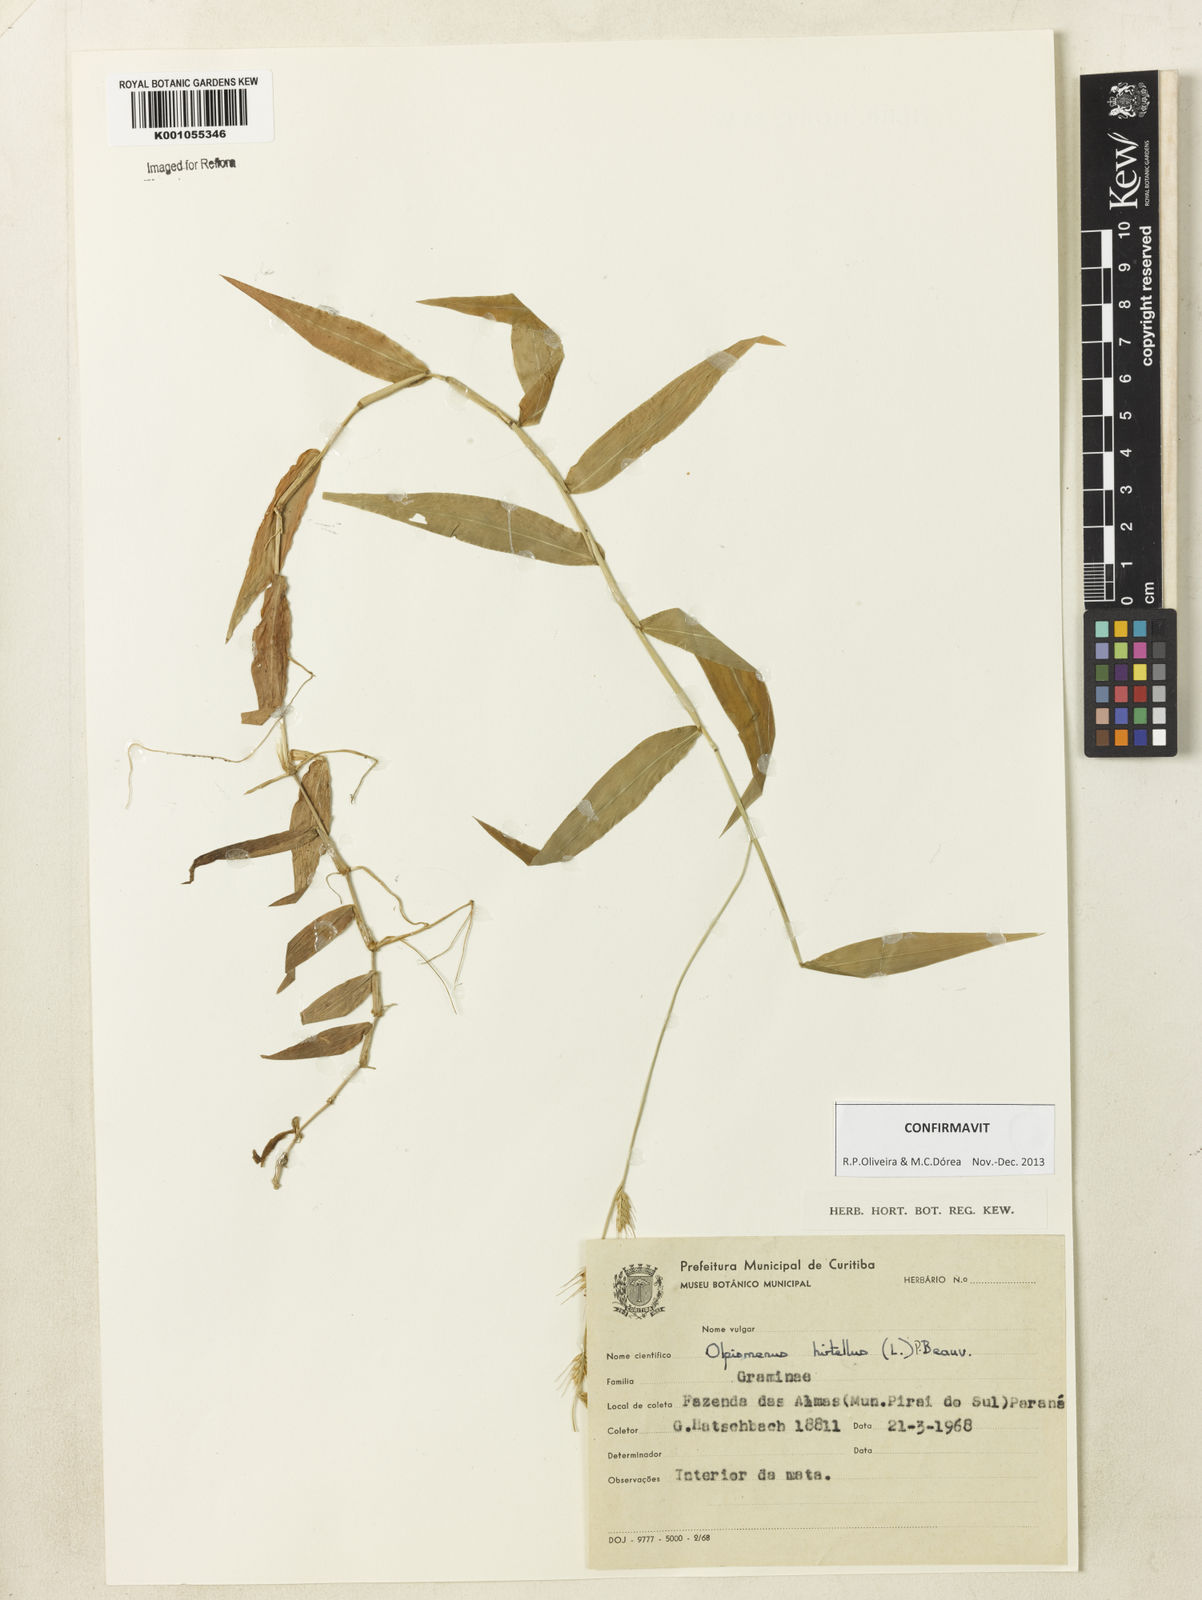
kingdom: Plantae
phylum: Tracheophyta
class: Liliopsida
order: Poales
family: Poaceae
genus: Oplismenus
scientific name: Oplismenus hirtellus
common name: Basketgrass
